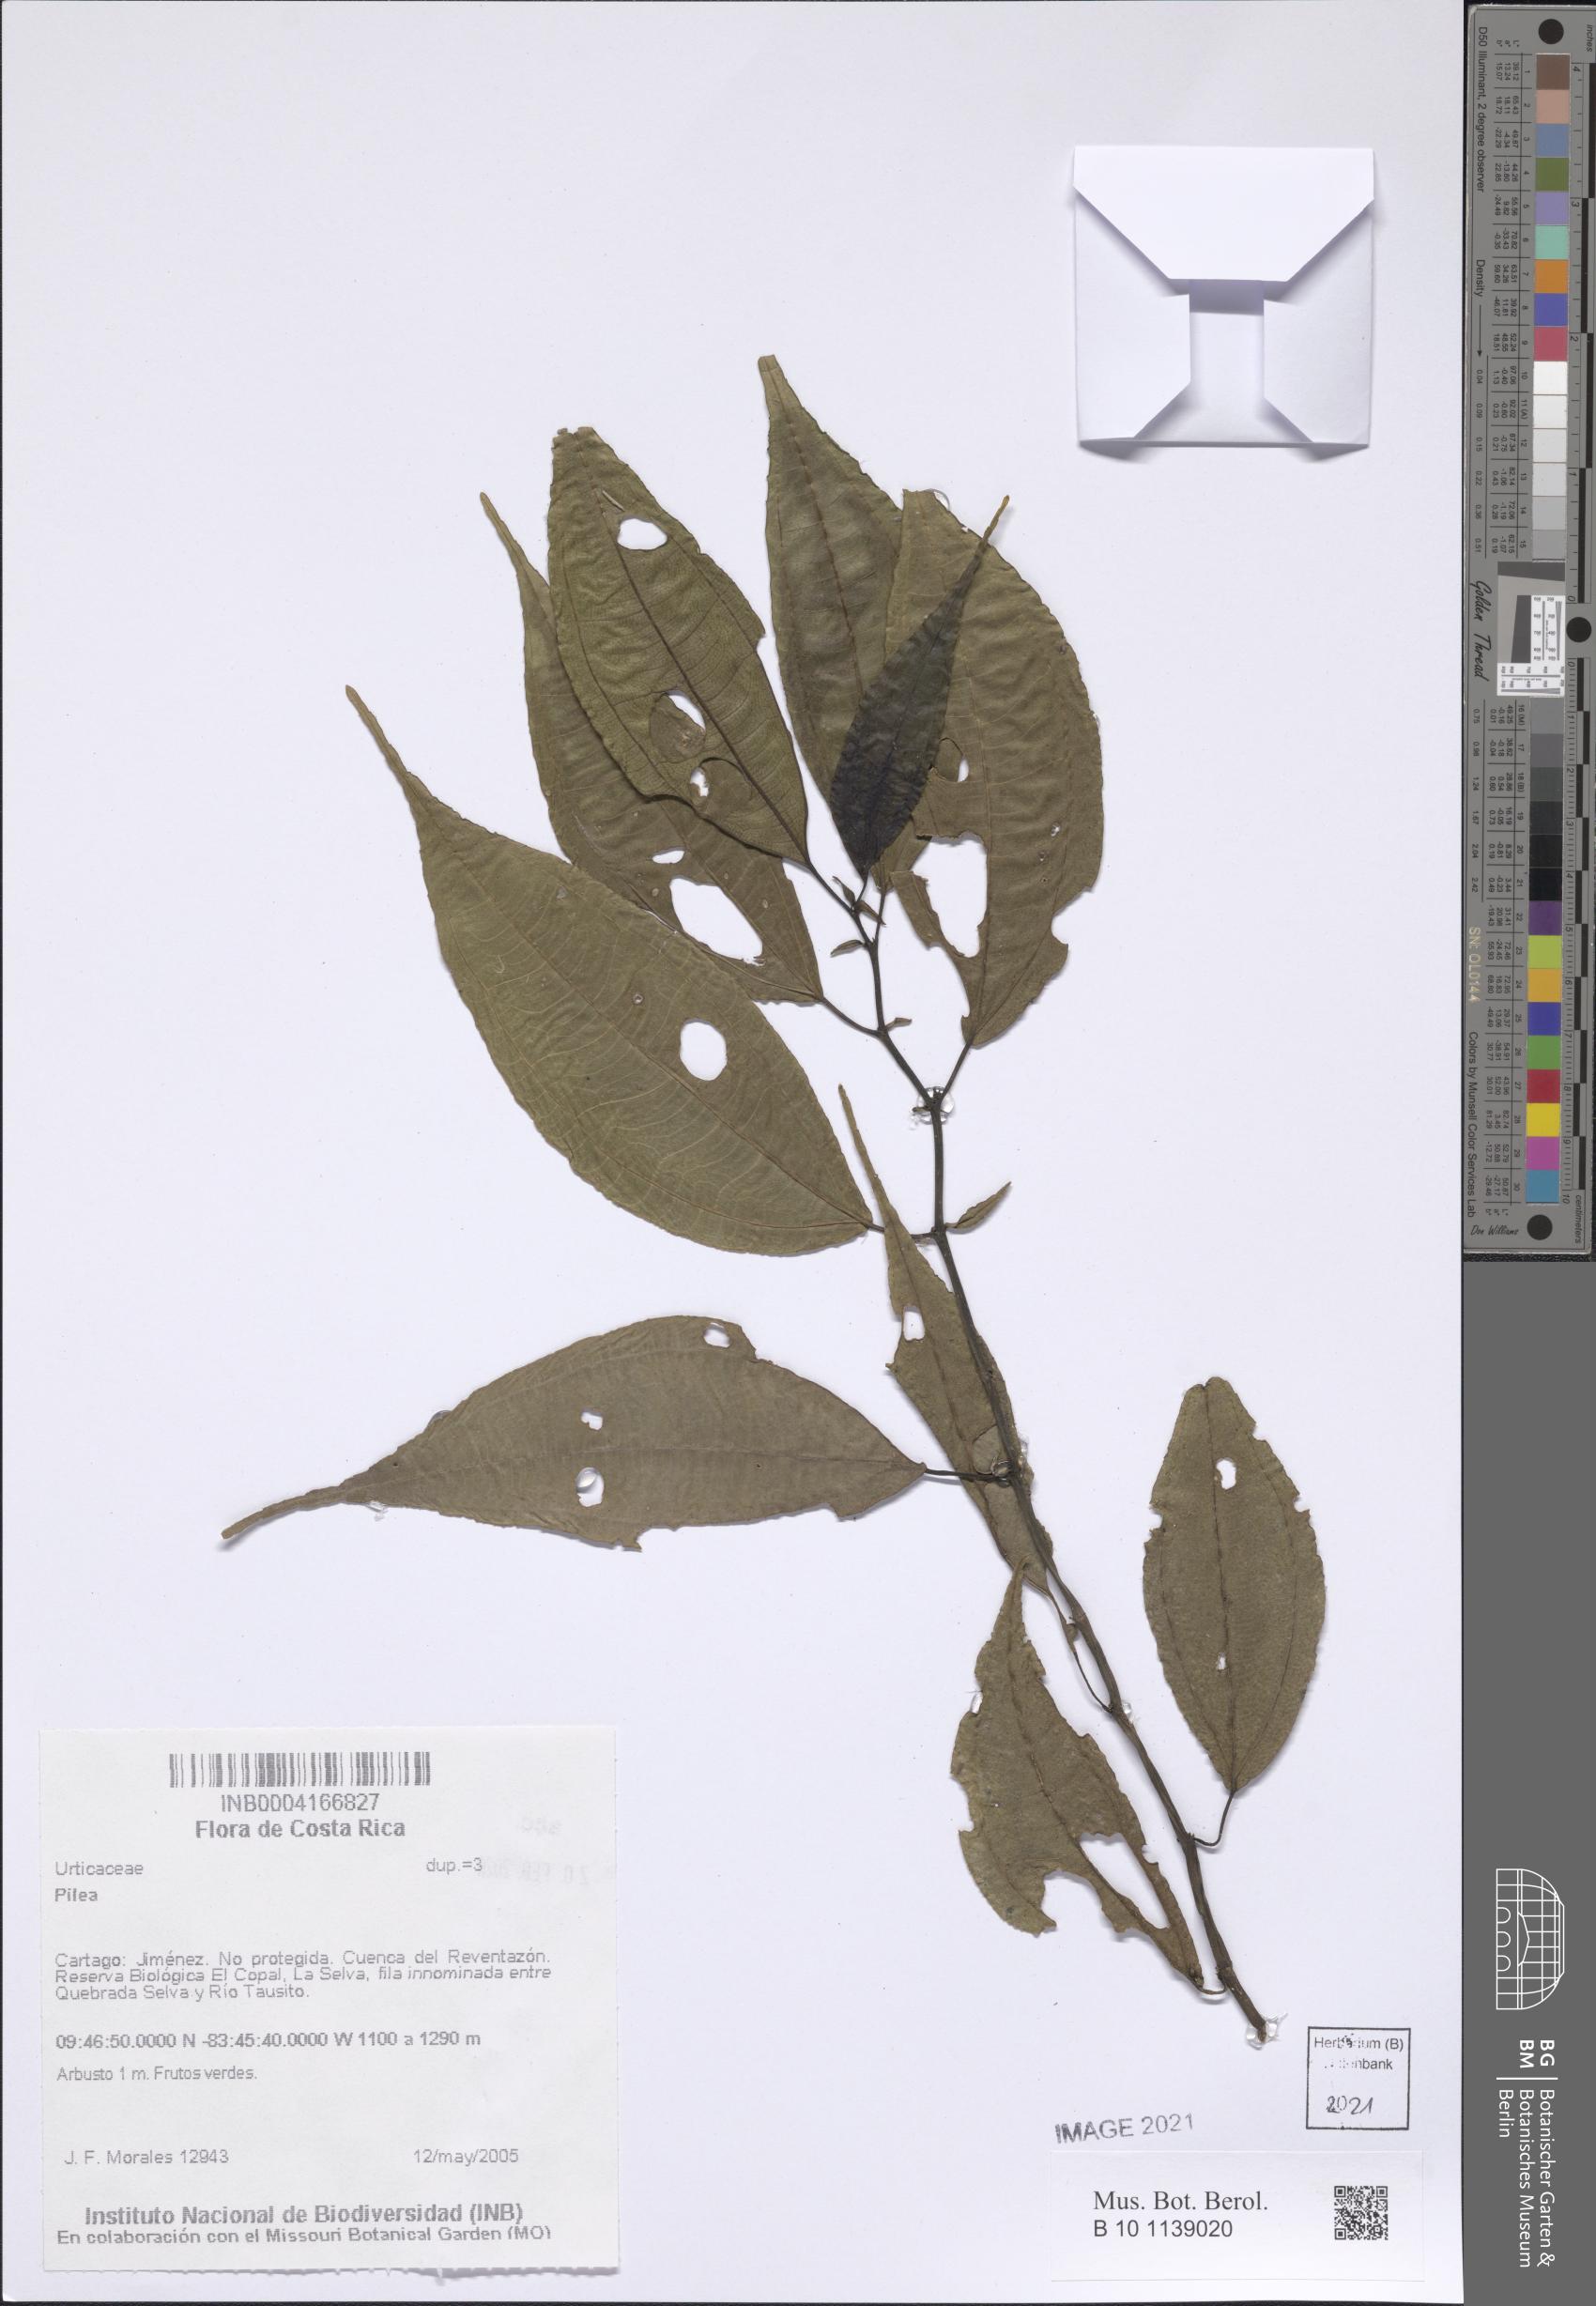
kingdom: Plantae
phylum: Tracheophyta
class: Magnoliopsida
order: Rosales
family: Urticaceae
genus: Pilea
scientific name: Pilea
